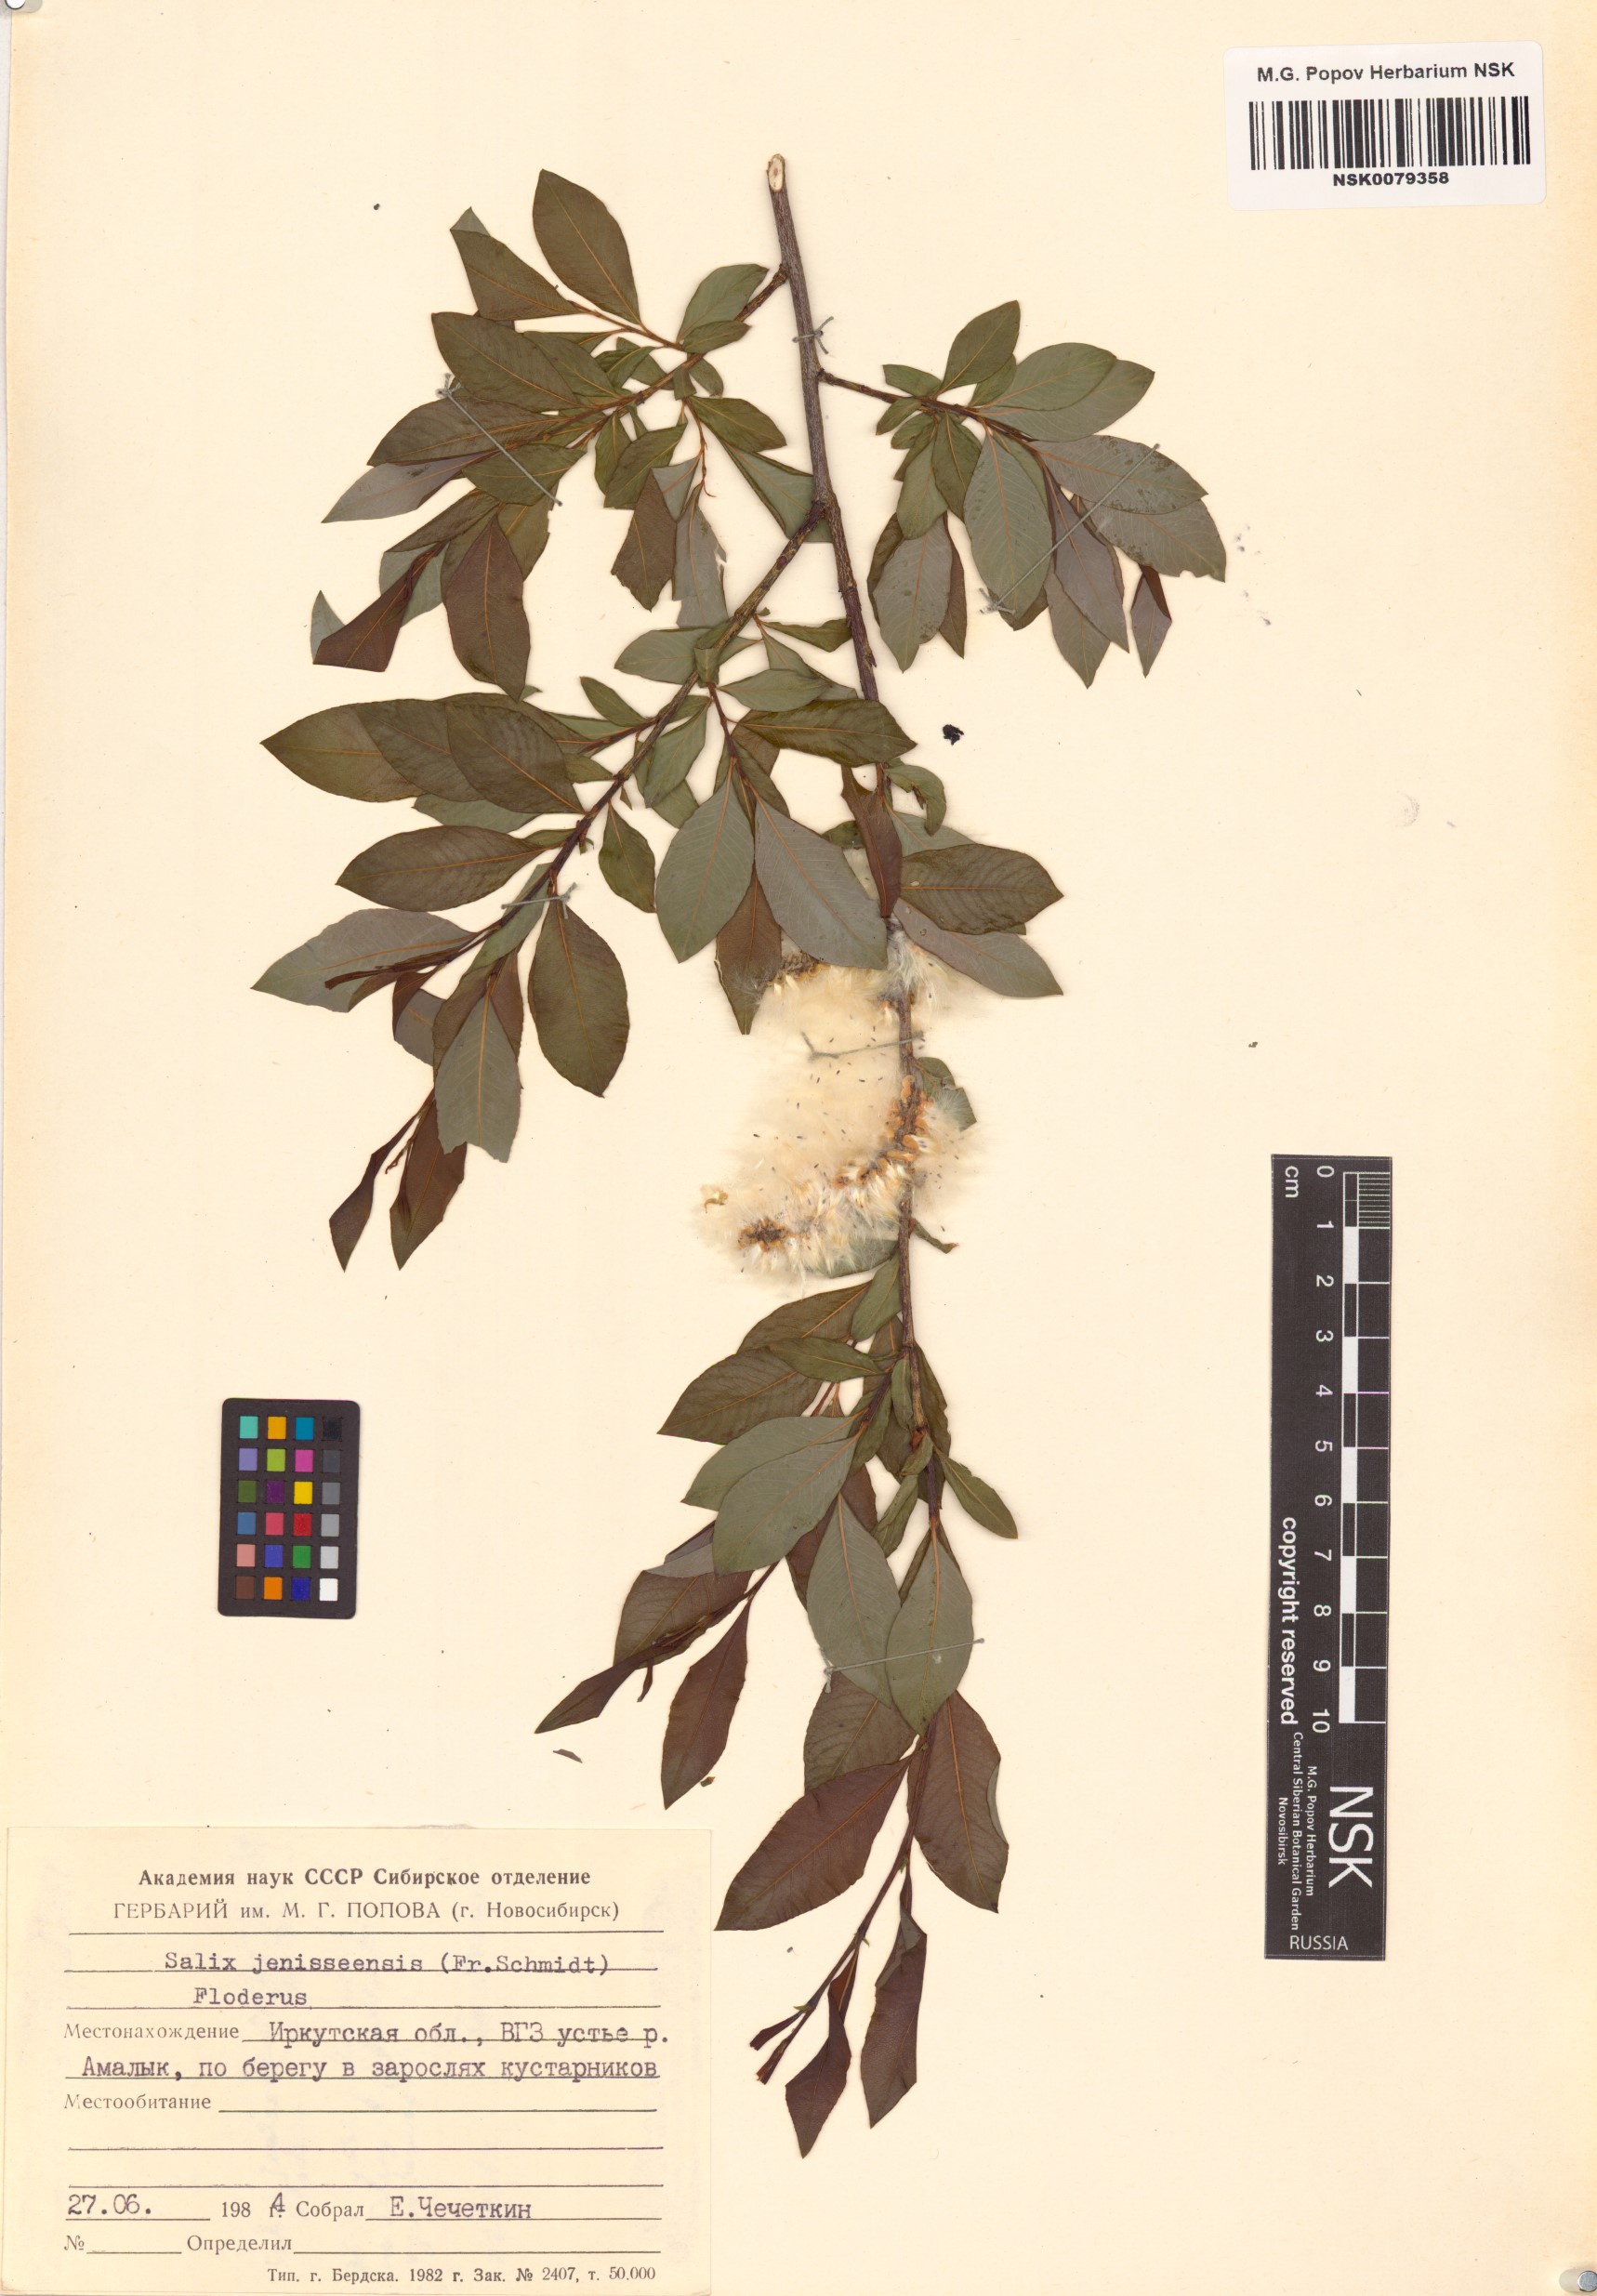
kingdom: Plantae
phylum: Tracheophyta
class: Magnoliopsida
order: Malpighiales
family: Salicaceae
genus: Salix
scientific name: Salix jenisseensis
